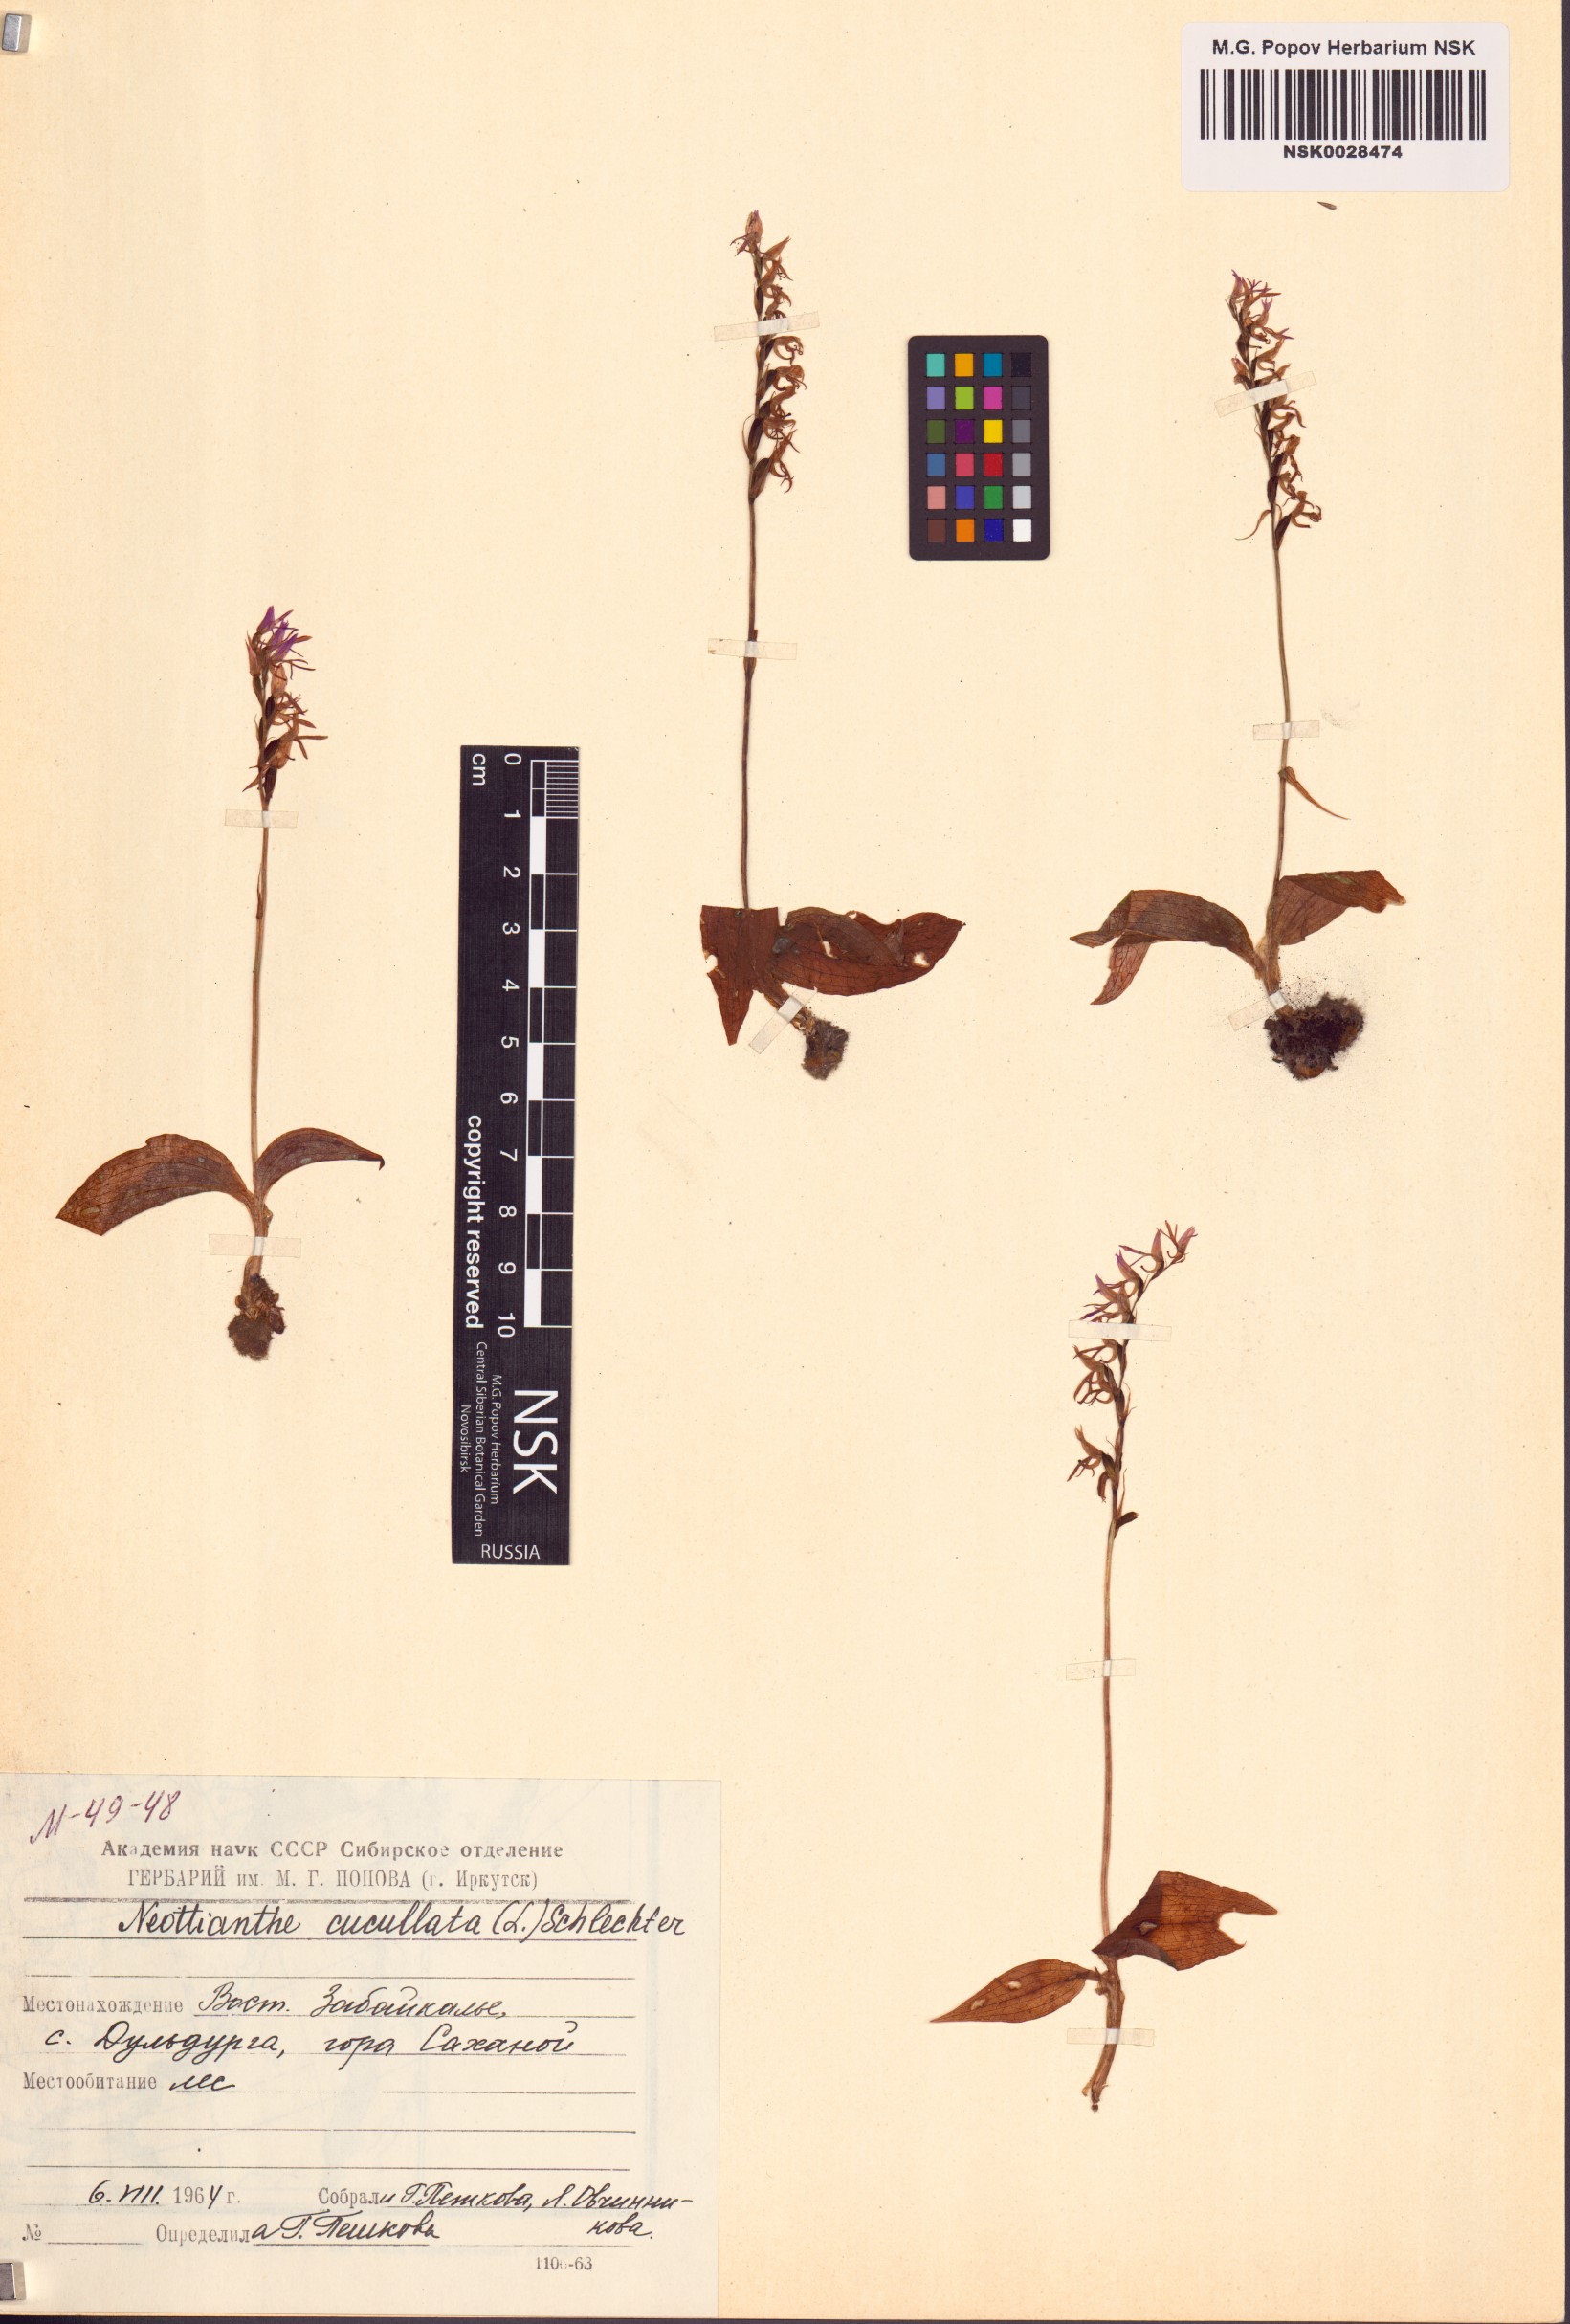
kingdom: Plantae
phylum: Tracheophyta
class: Liliopsida
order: Asparagales
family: Orchidaceae
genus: Hemipilia
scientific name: Hemipilia cucullata
